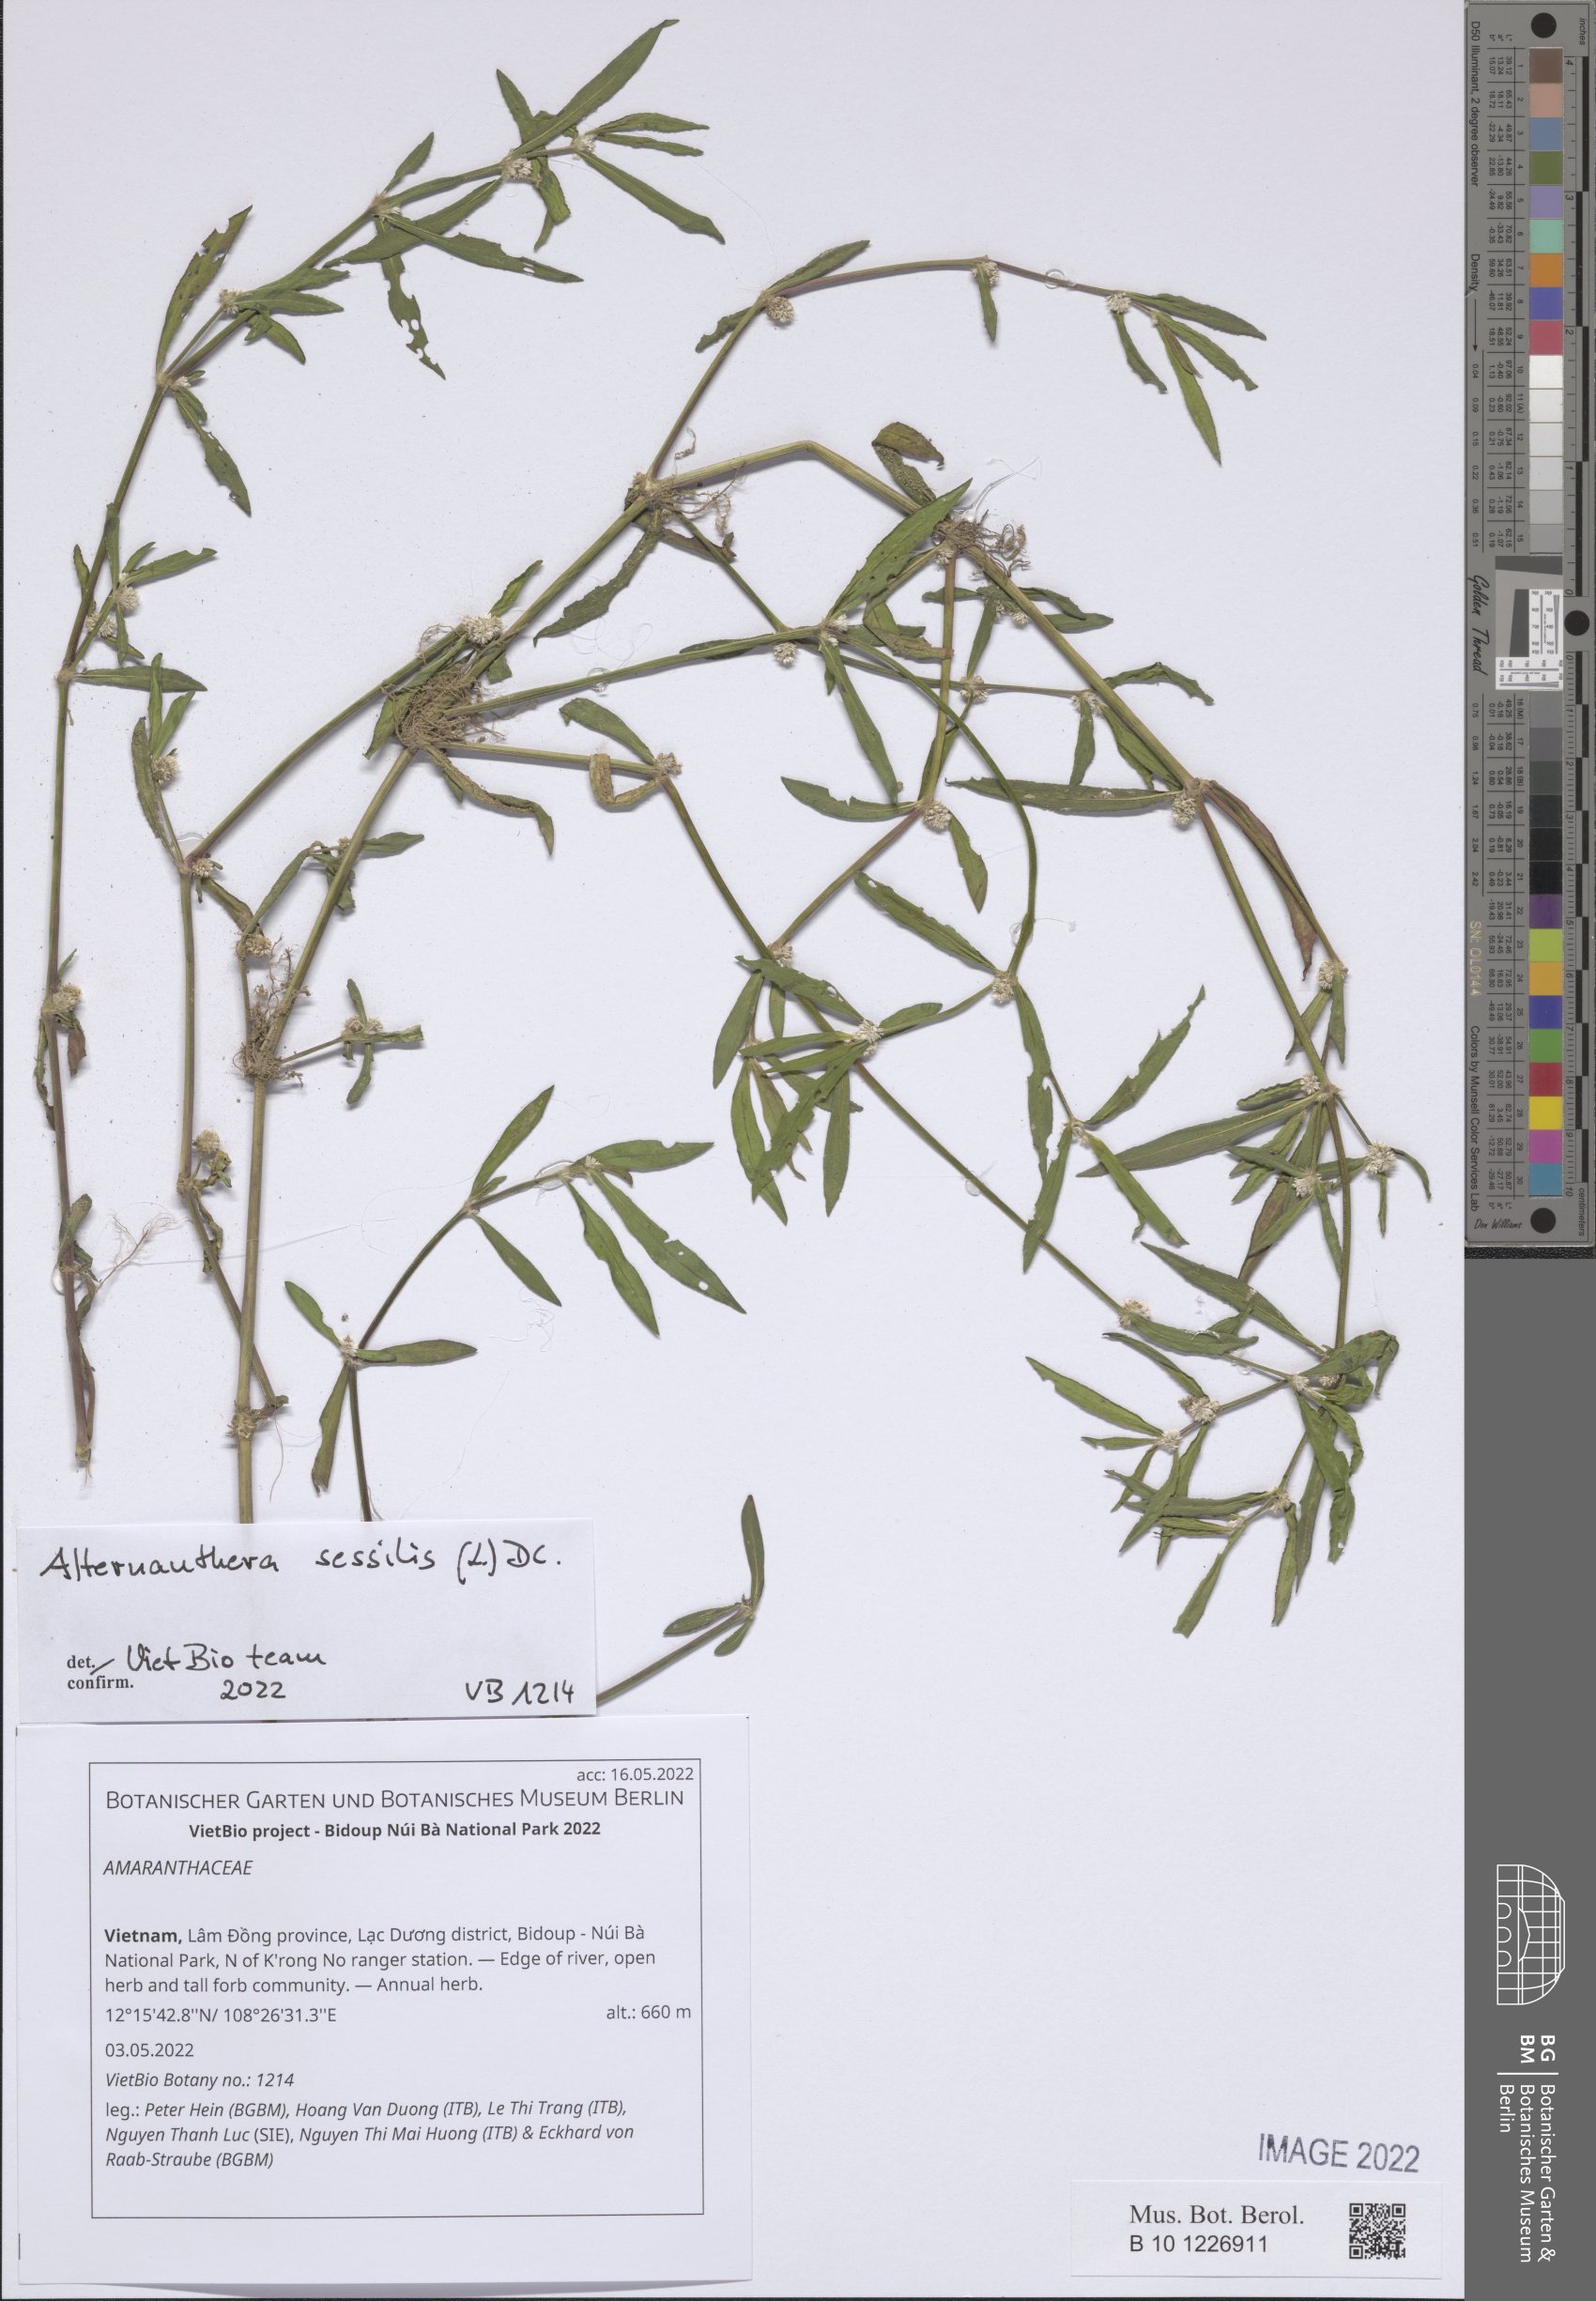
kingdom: Plantae
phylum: Tracheophyta
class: Magnoliopsida
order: Caryophyllales
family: Amaranthaceae
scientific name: Amaranthaceae
